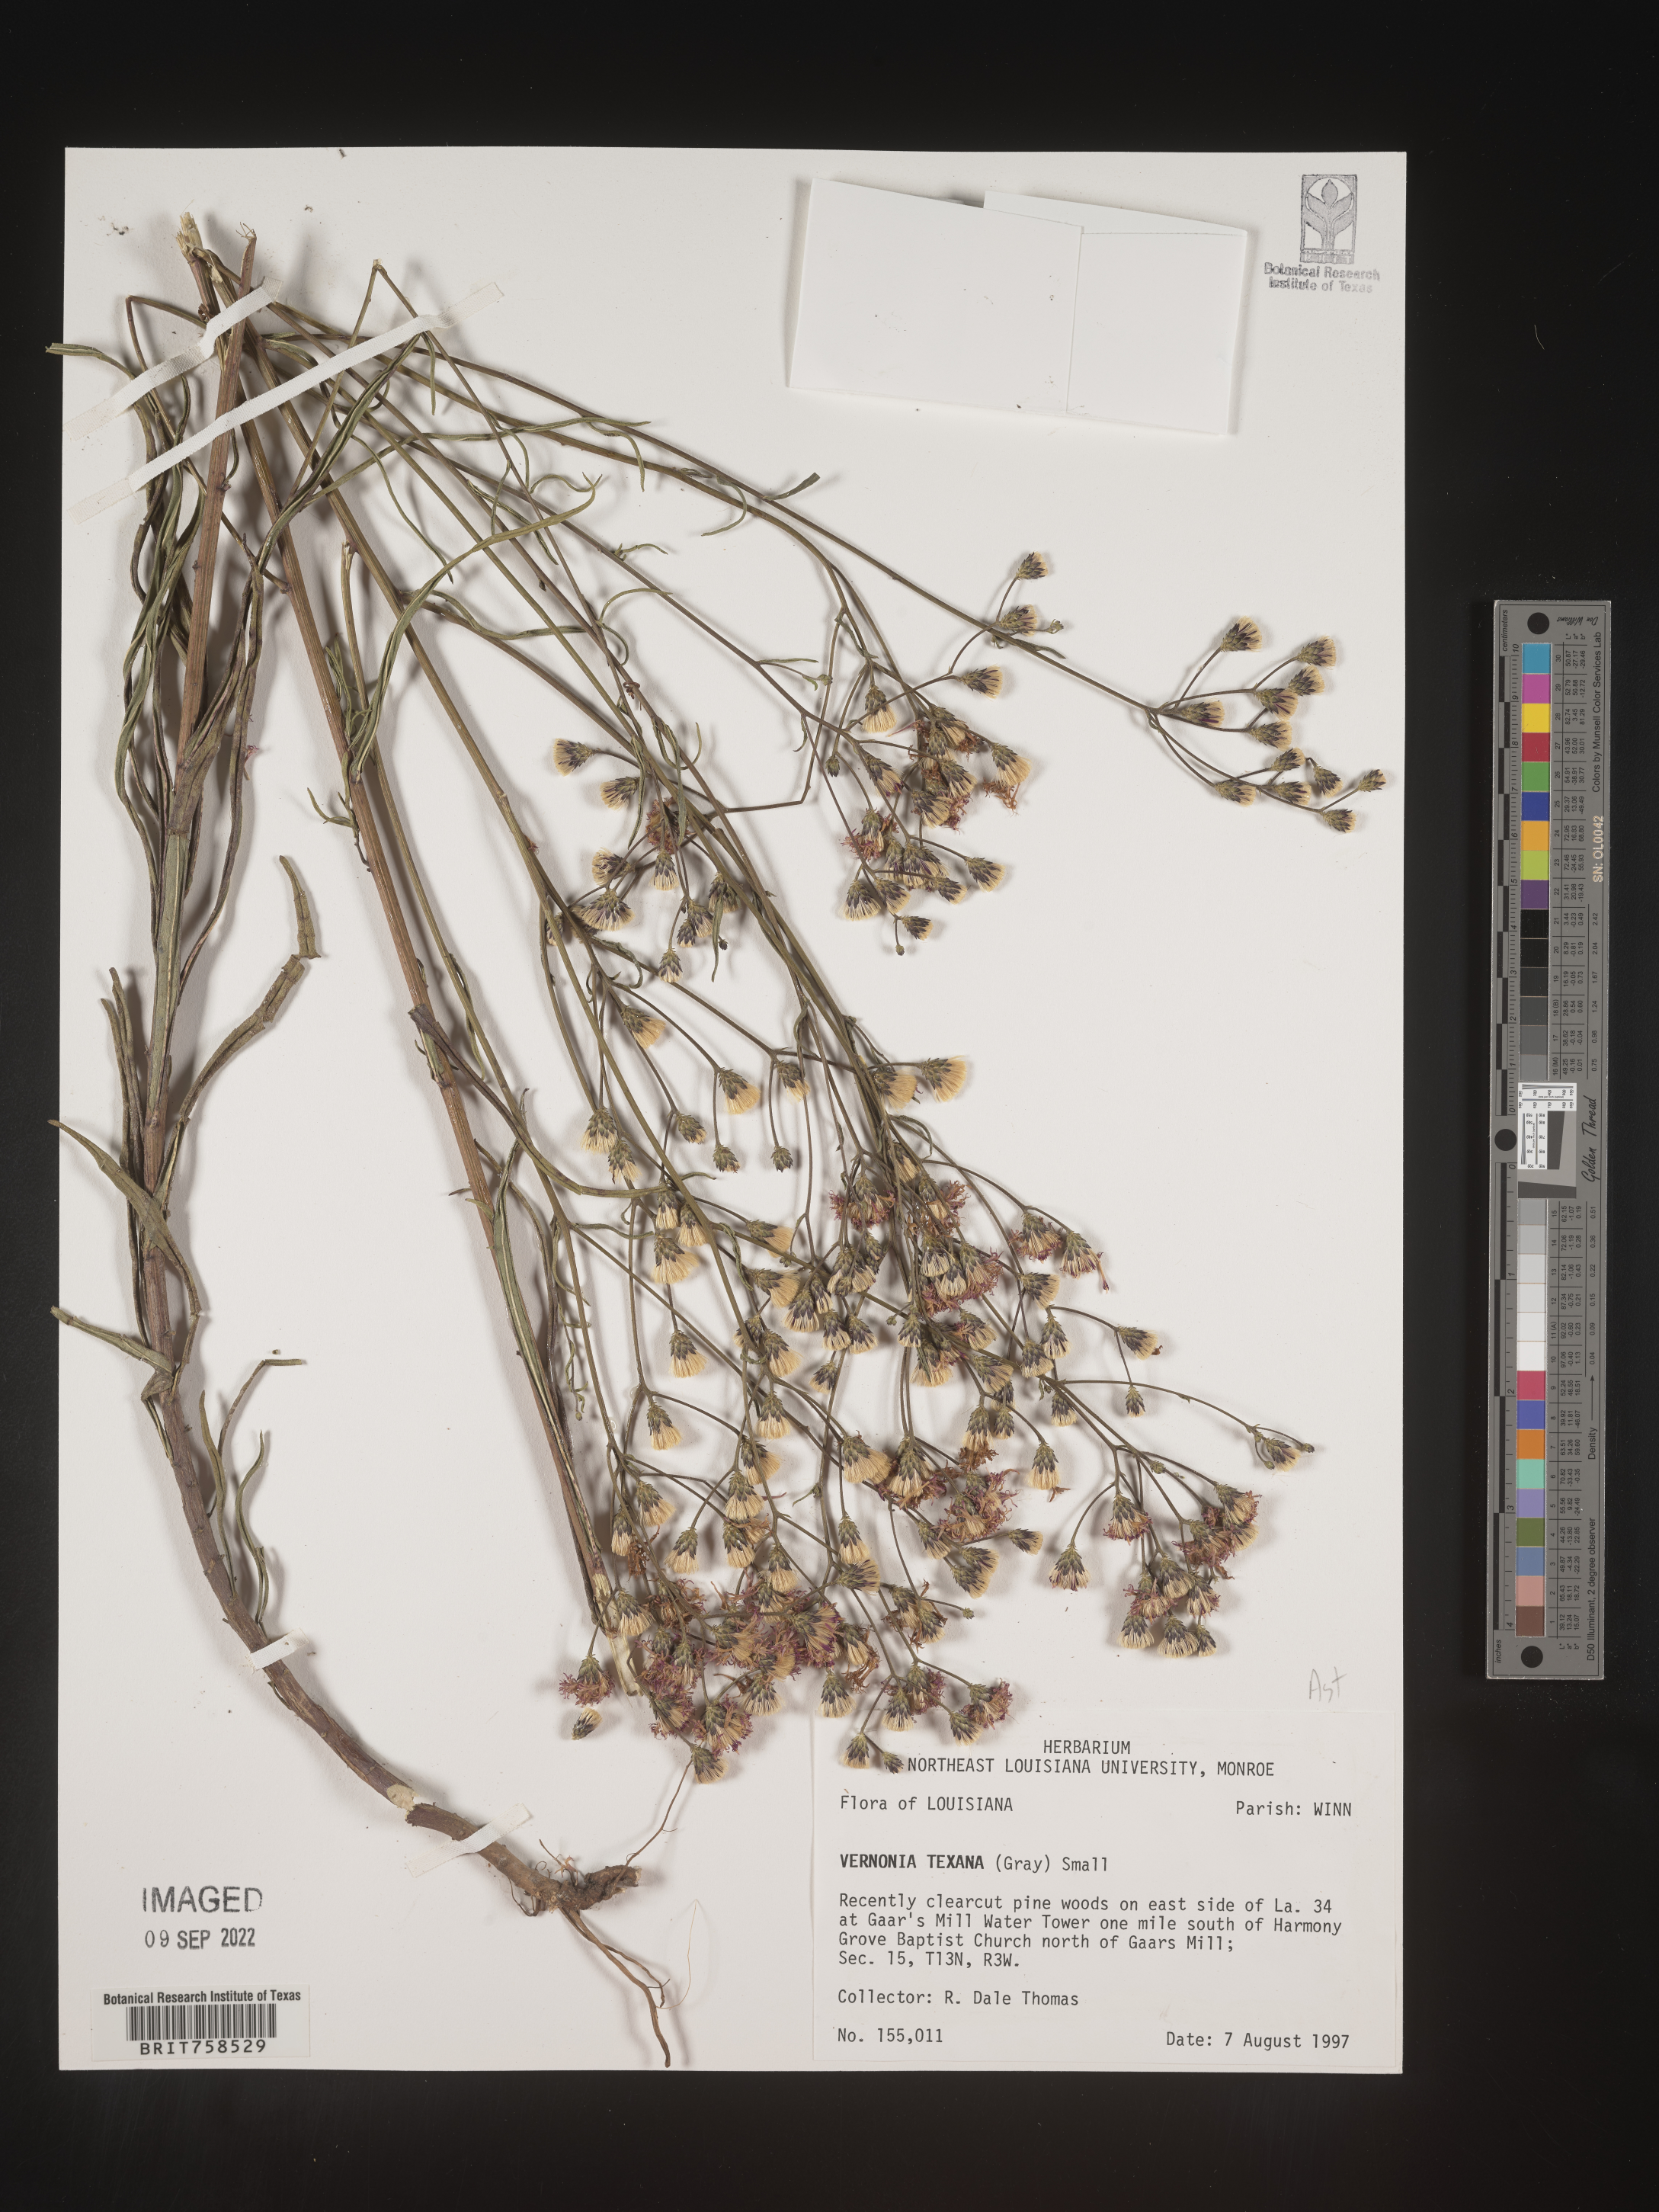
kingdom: Plantae
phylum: Tracheophyta
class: Magnoliopsida
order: Asterales
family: Asteraceae
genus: Vernonia
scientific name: Vernonia texana
